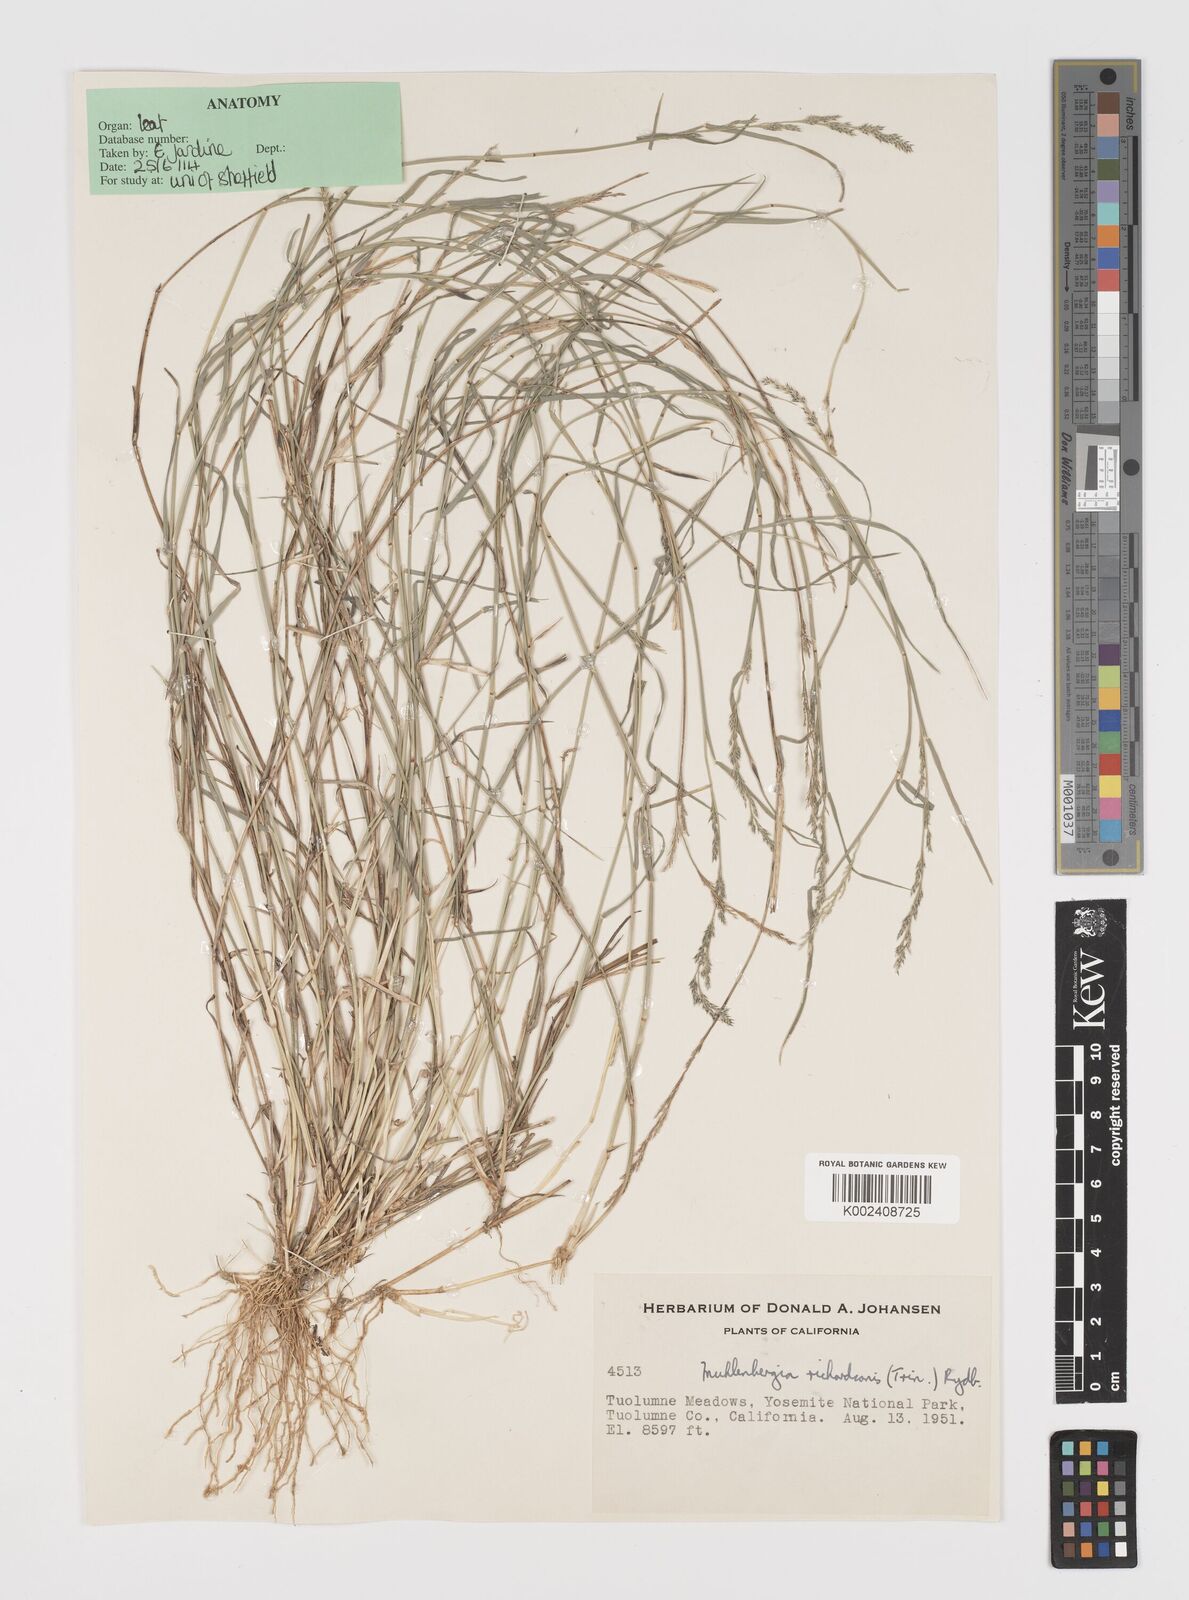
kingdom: Plantae
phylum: Tracheophyta
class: Liliopsida
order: Poales
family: Poaceae
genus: Muhlenbergia
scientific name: Muhlenbergia richardsonis
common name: Mat muhly
